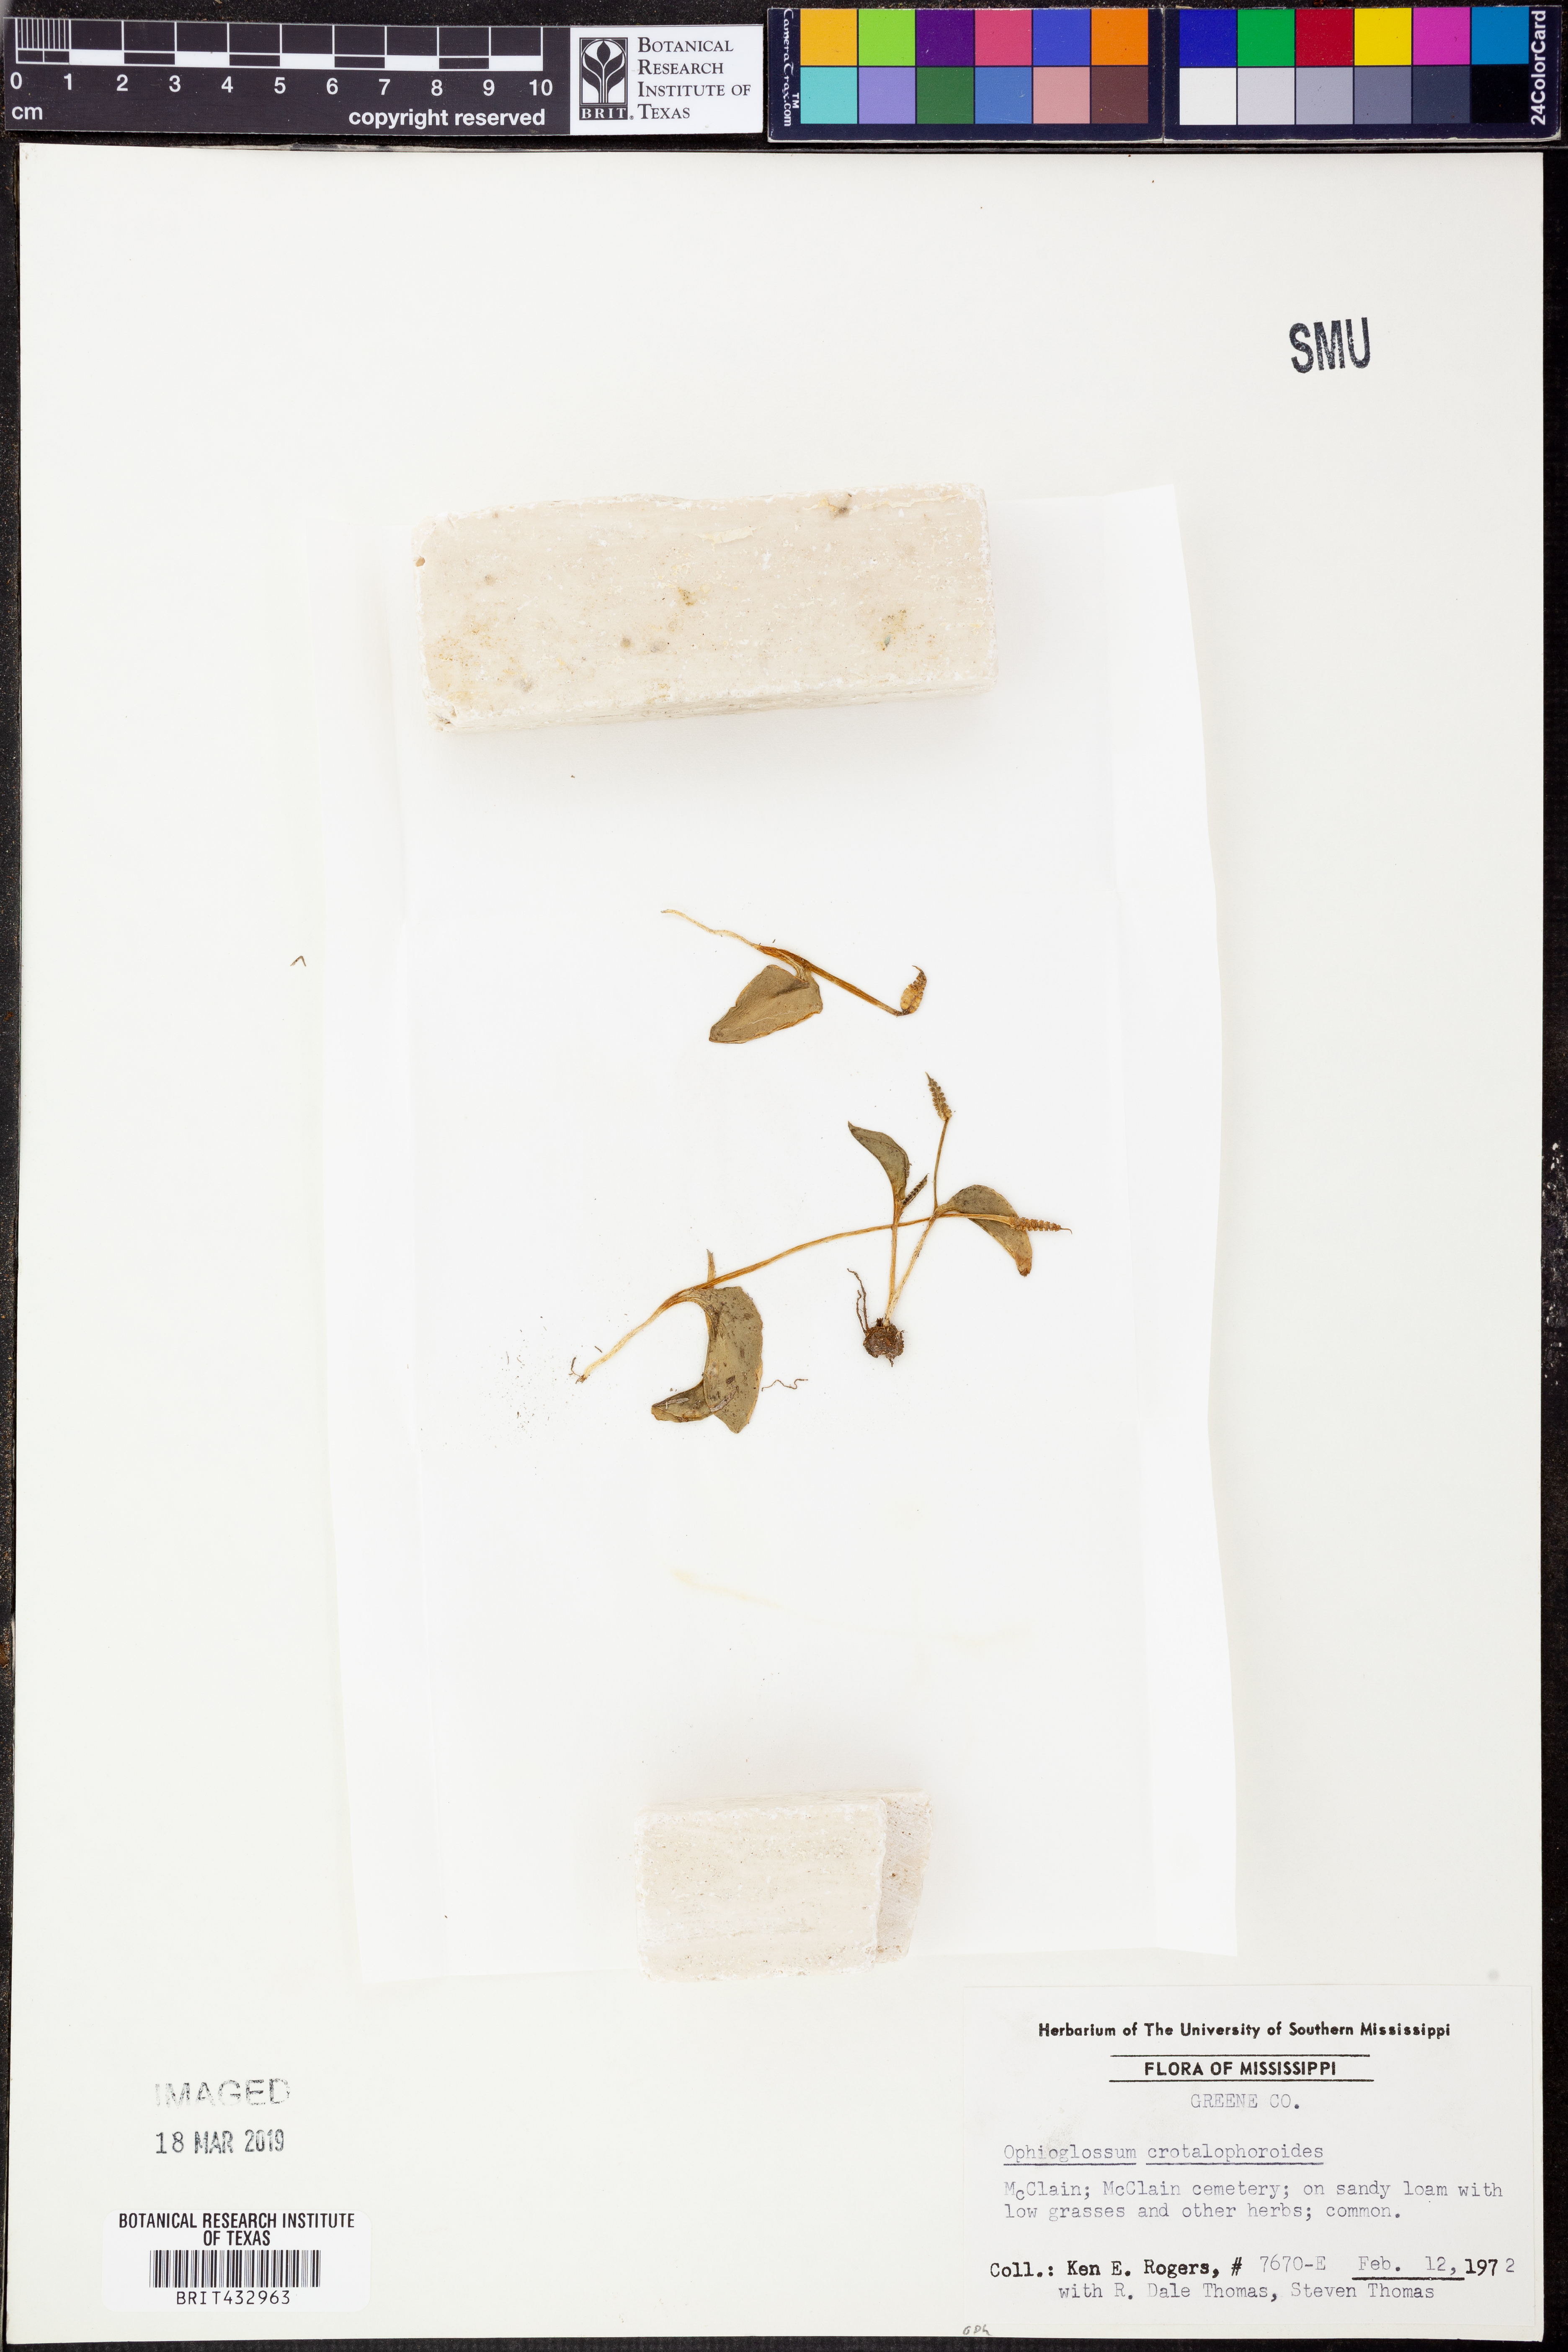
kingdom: Plantae
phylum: Tracheophyta
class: Polypodiopsida
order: Ophioglossales
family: Ophioglossaceae
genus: Ophioglossum
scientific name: Ophioglossum crotalophoroides
